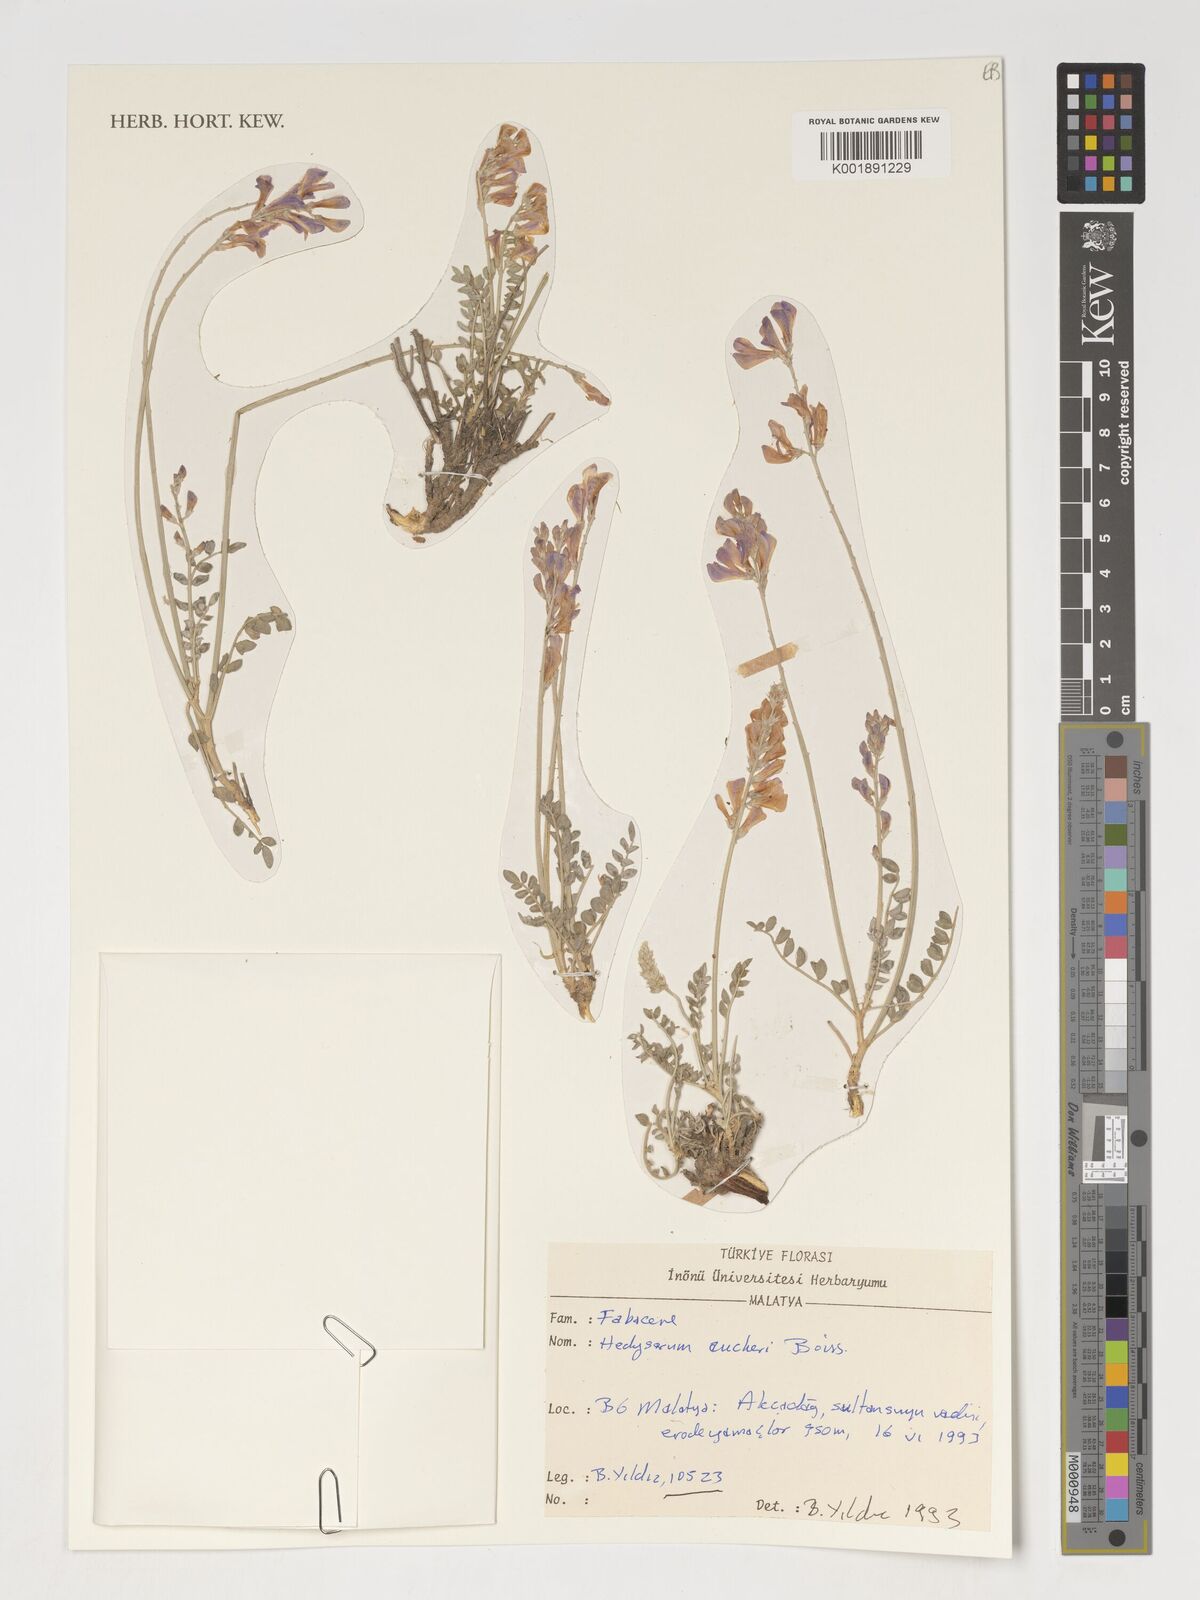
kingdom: Plantae
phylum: Tracheophyta
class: Magnoliopsida
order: Fabales
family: Fabaceae
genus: Hedysarum
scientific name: Hedysarum aucheri
